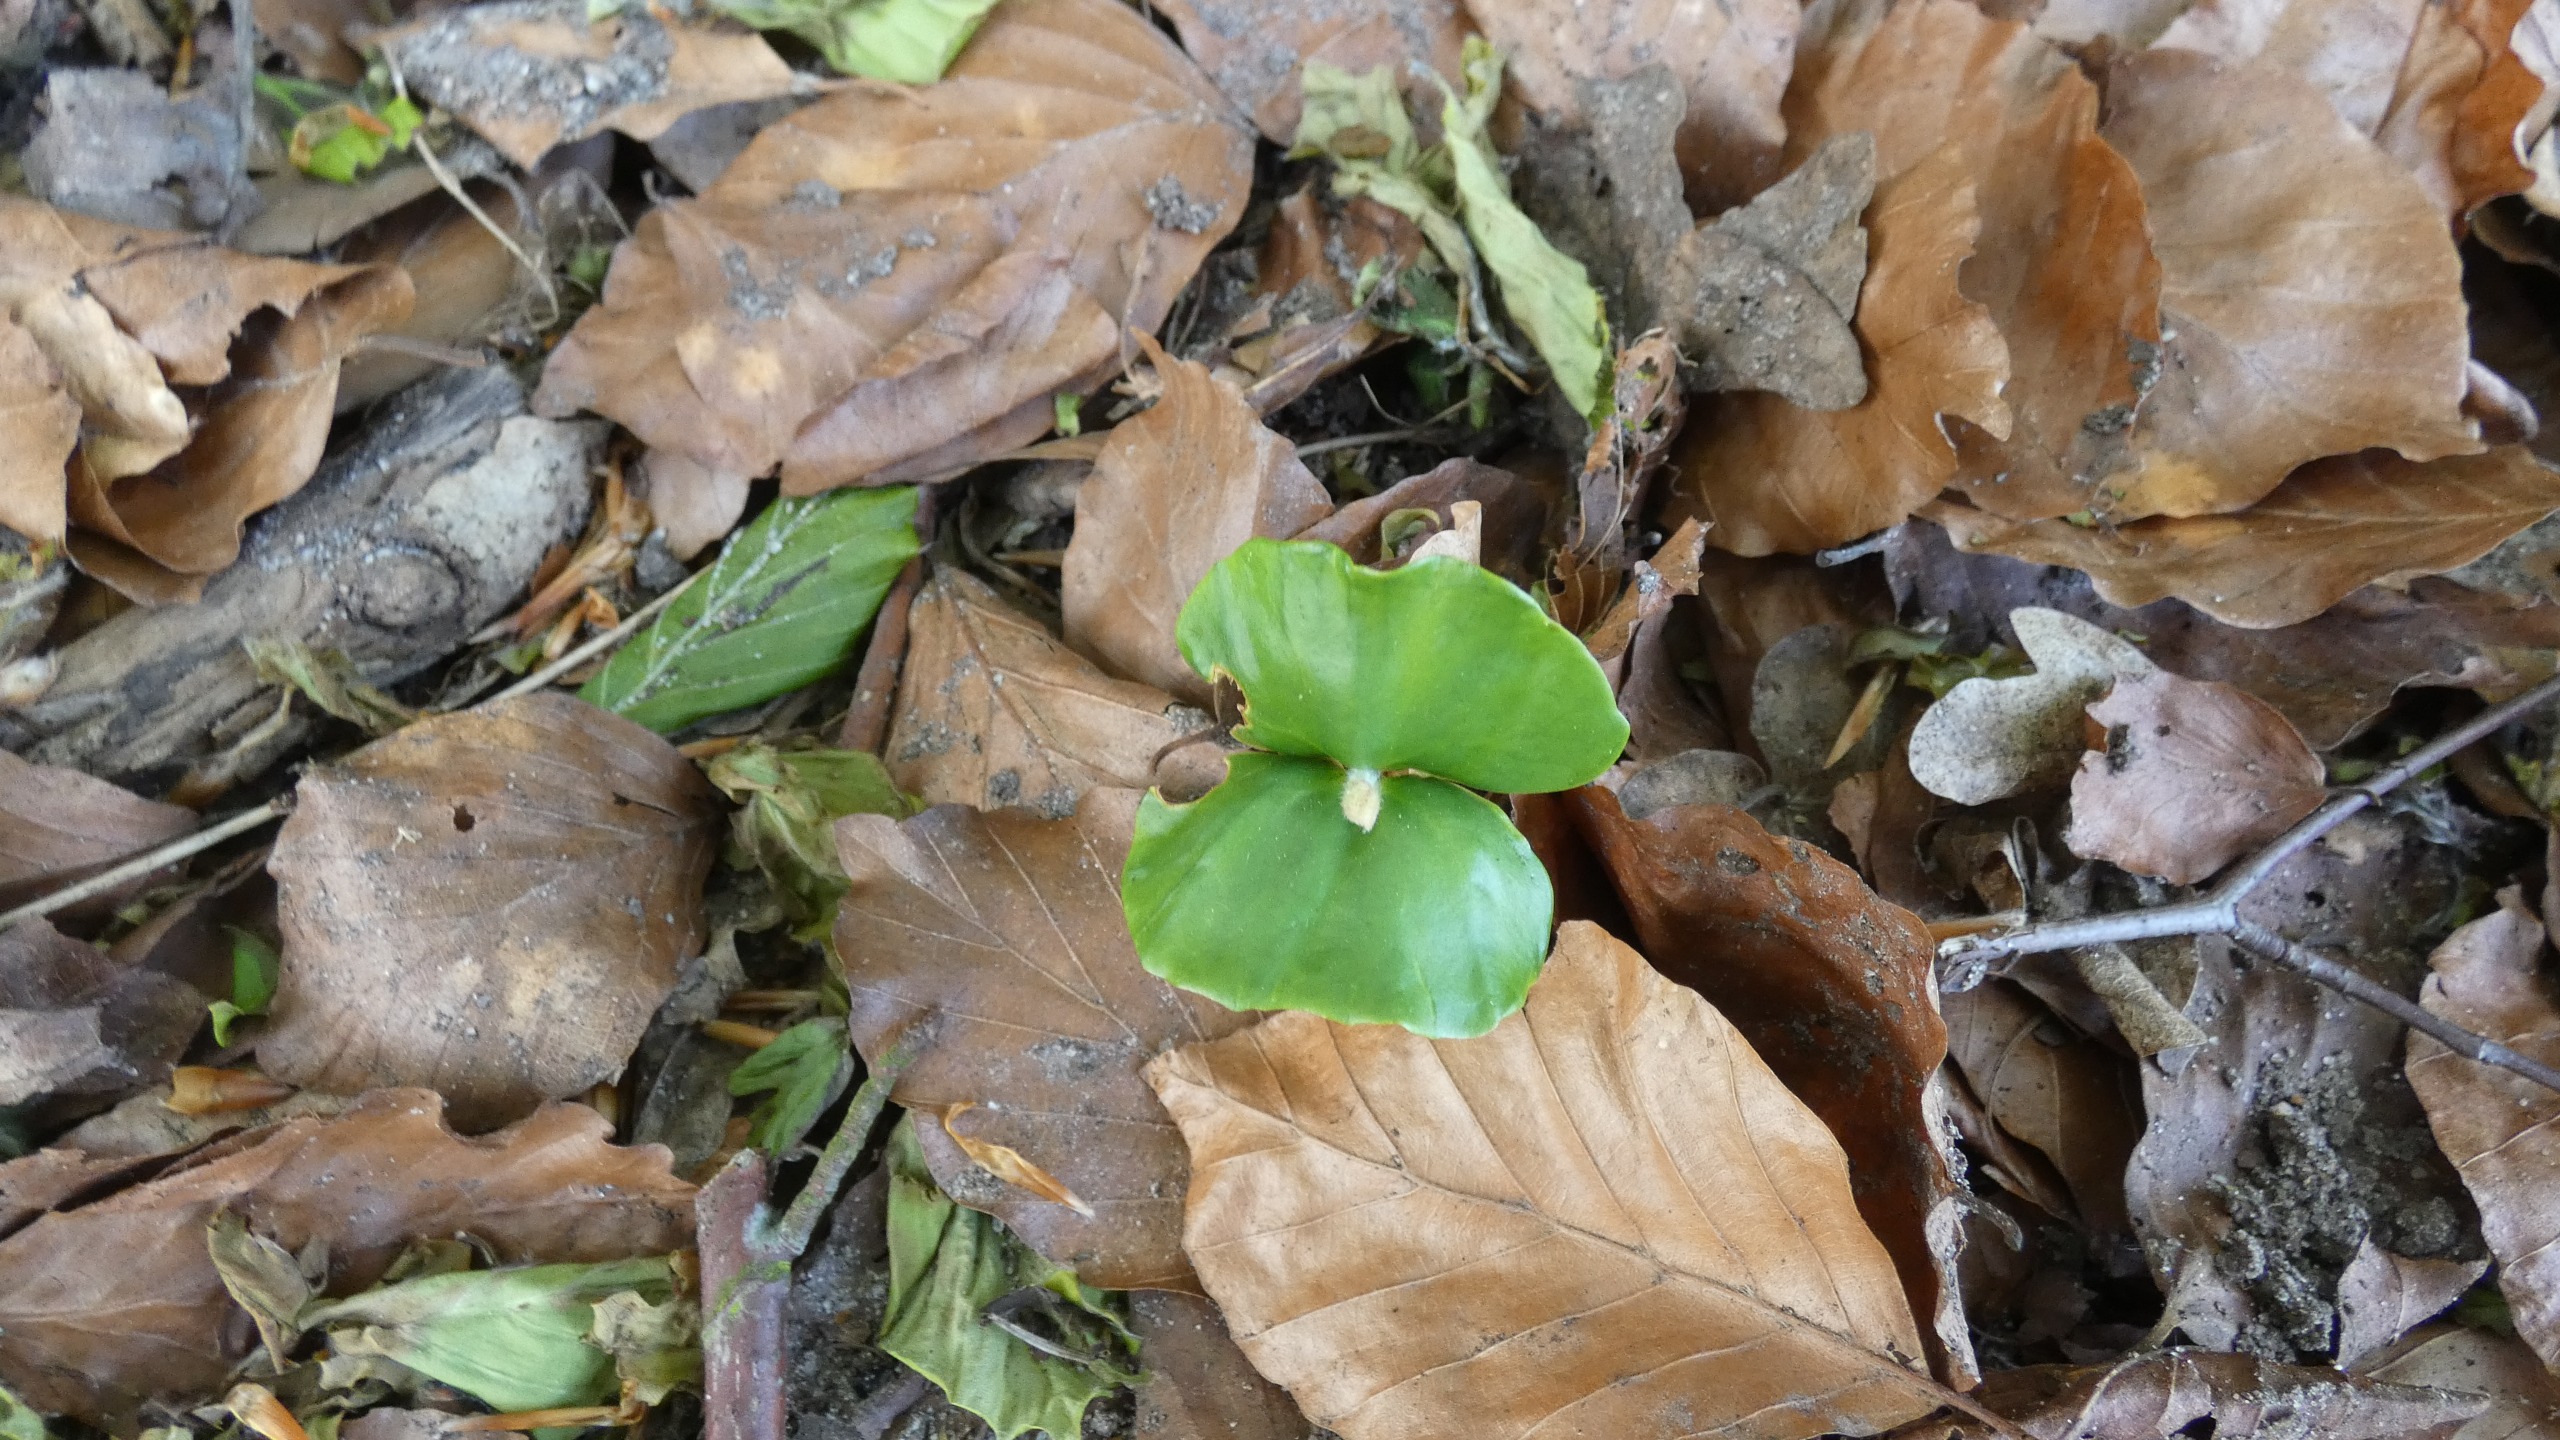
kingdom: Plantae
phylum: Tracheophyta
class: Magnoliopsida
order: Fagales
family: Fagaceae
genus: Fagus
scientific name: Fagus sylvatica
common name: Bøg
